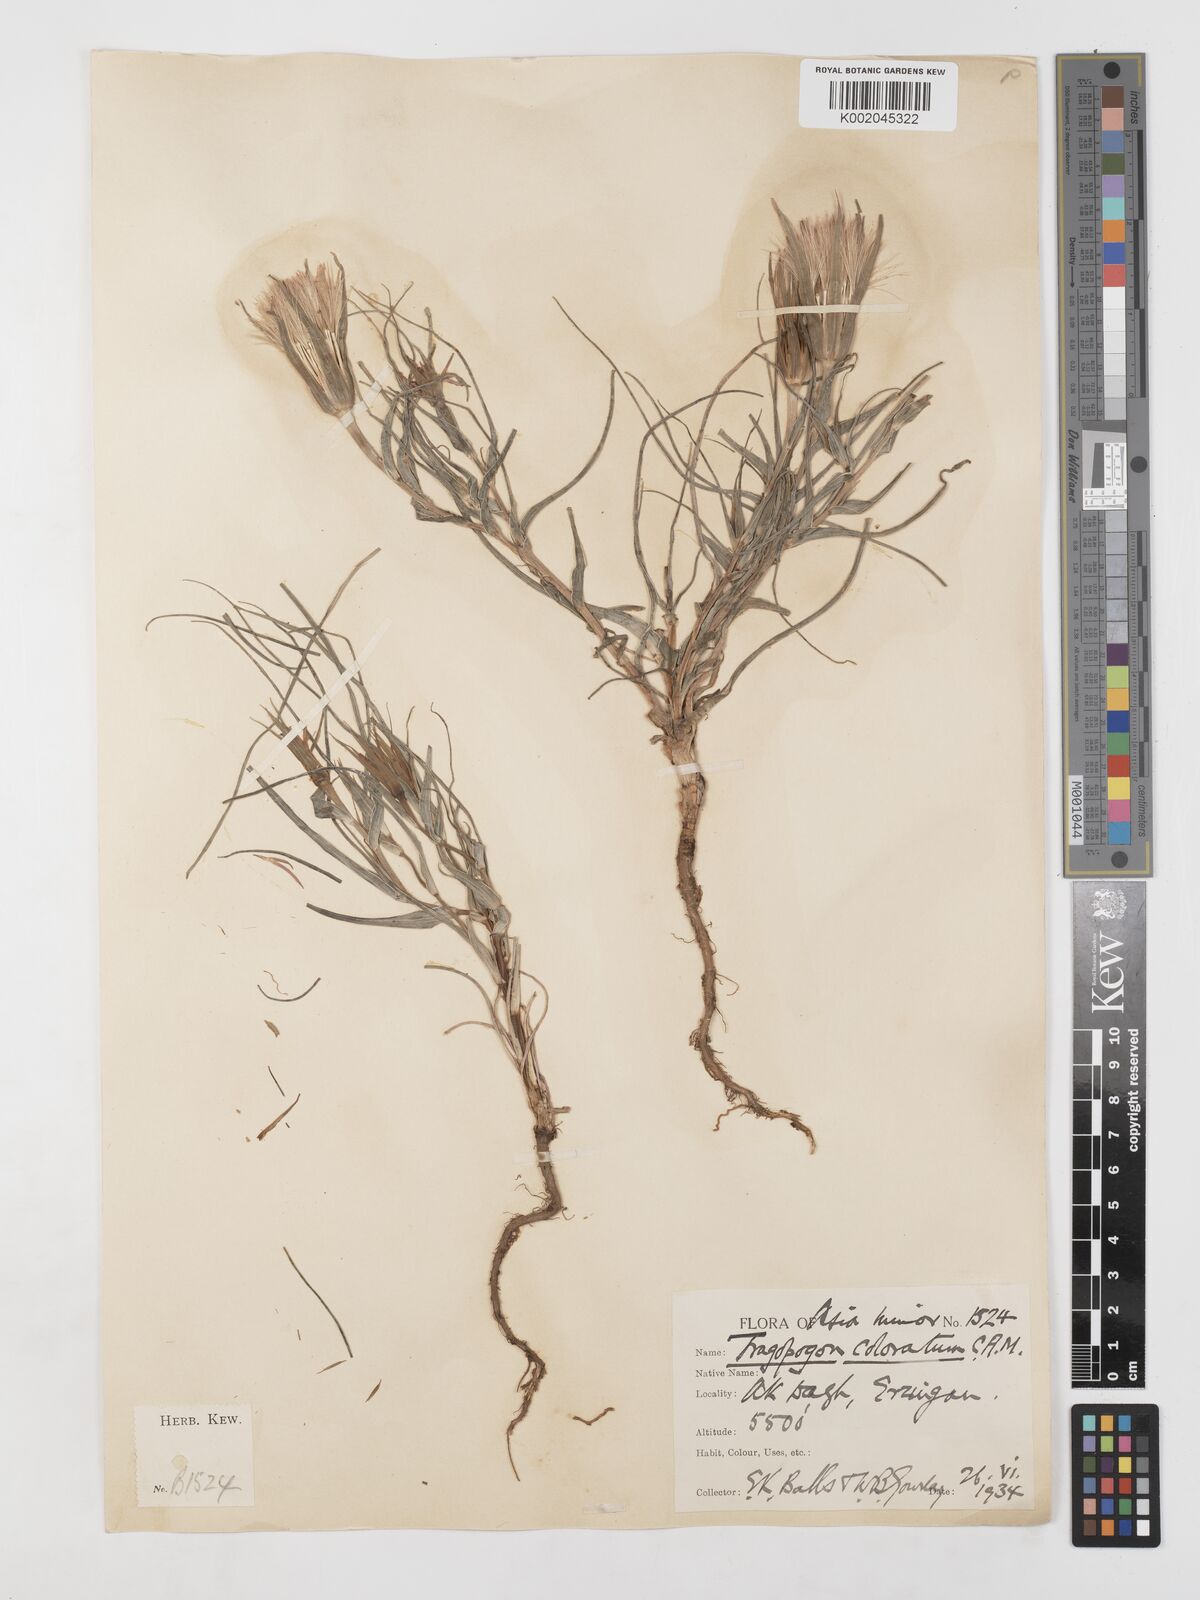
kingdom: Plantae
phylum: Tracheophyta
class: Magnoliopsida
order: Asterales
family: Asteraceae
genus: Tragopogon
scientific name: Tragopogon coloratus
